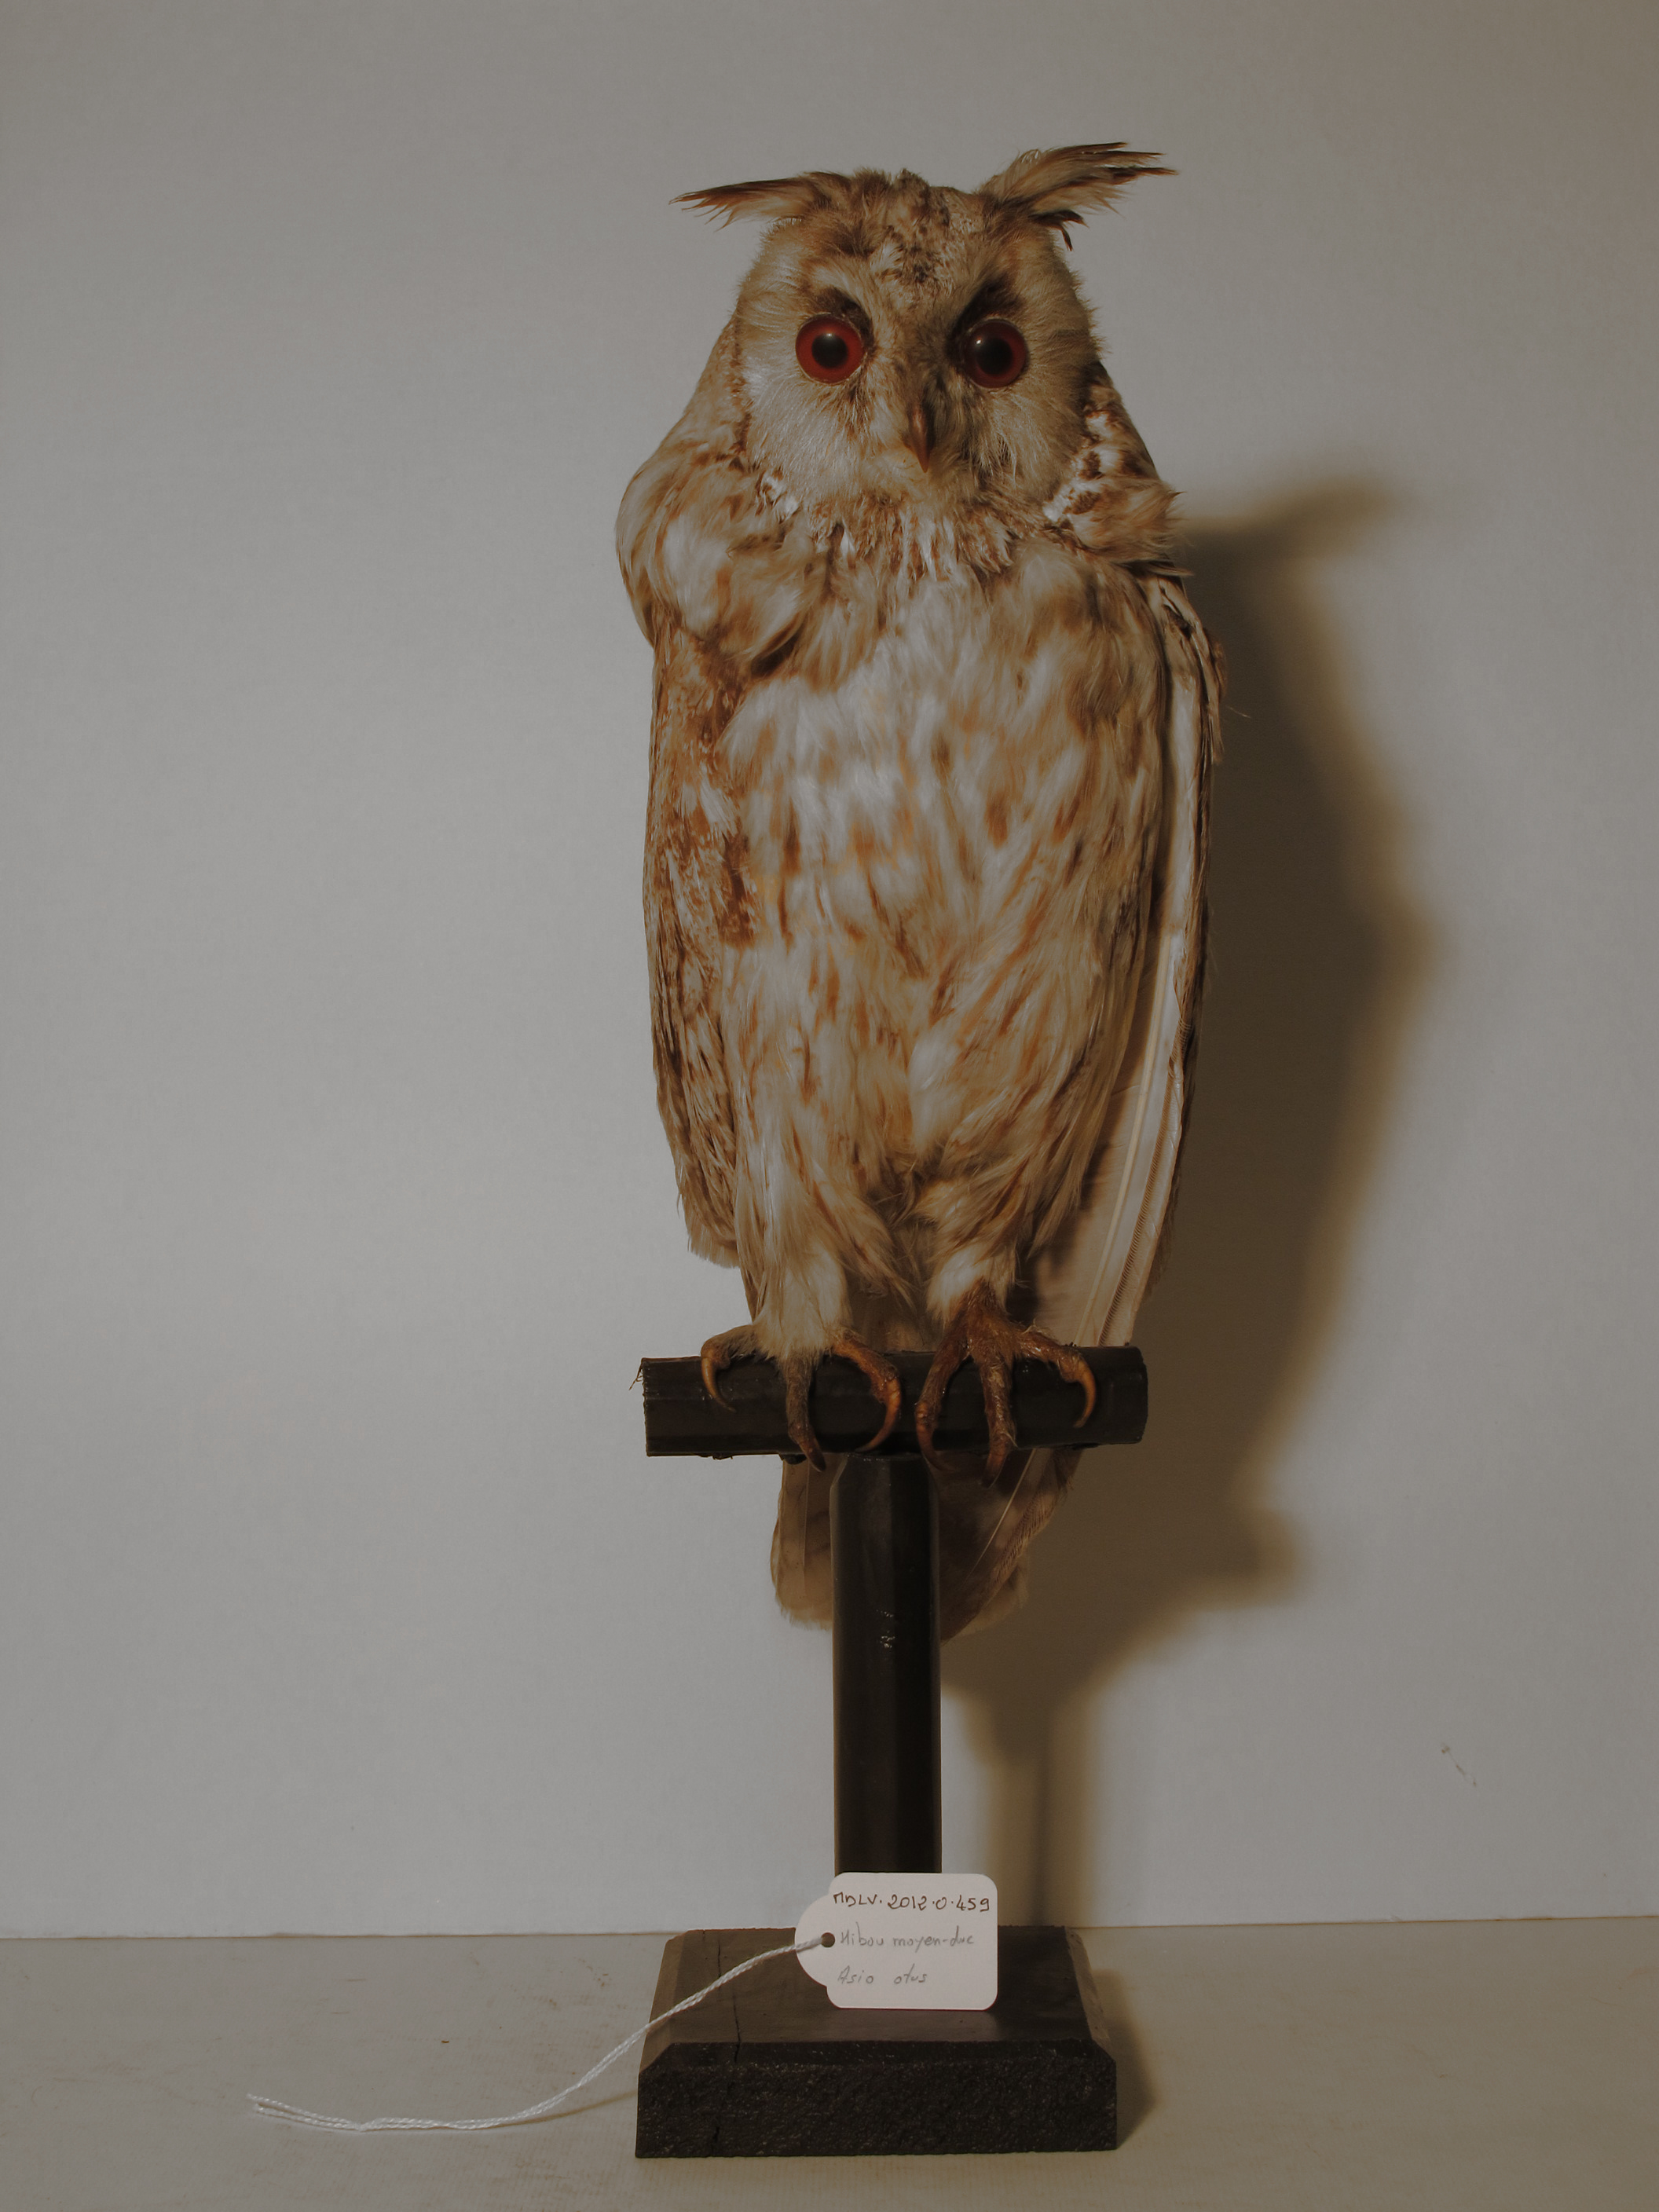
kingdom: Animalia
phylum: Chordata
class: Aves
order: Strigiformes
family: Strigidae
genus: Asio
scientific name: Asio otus
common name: Northern Long-eared Owl
